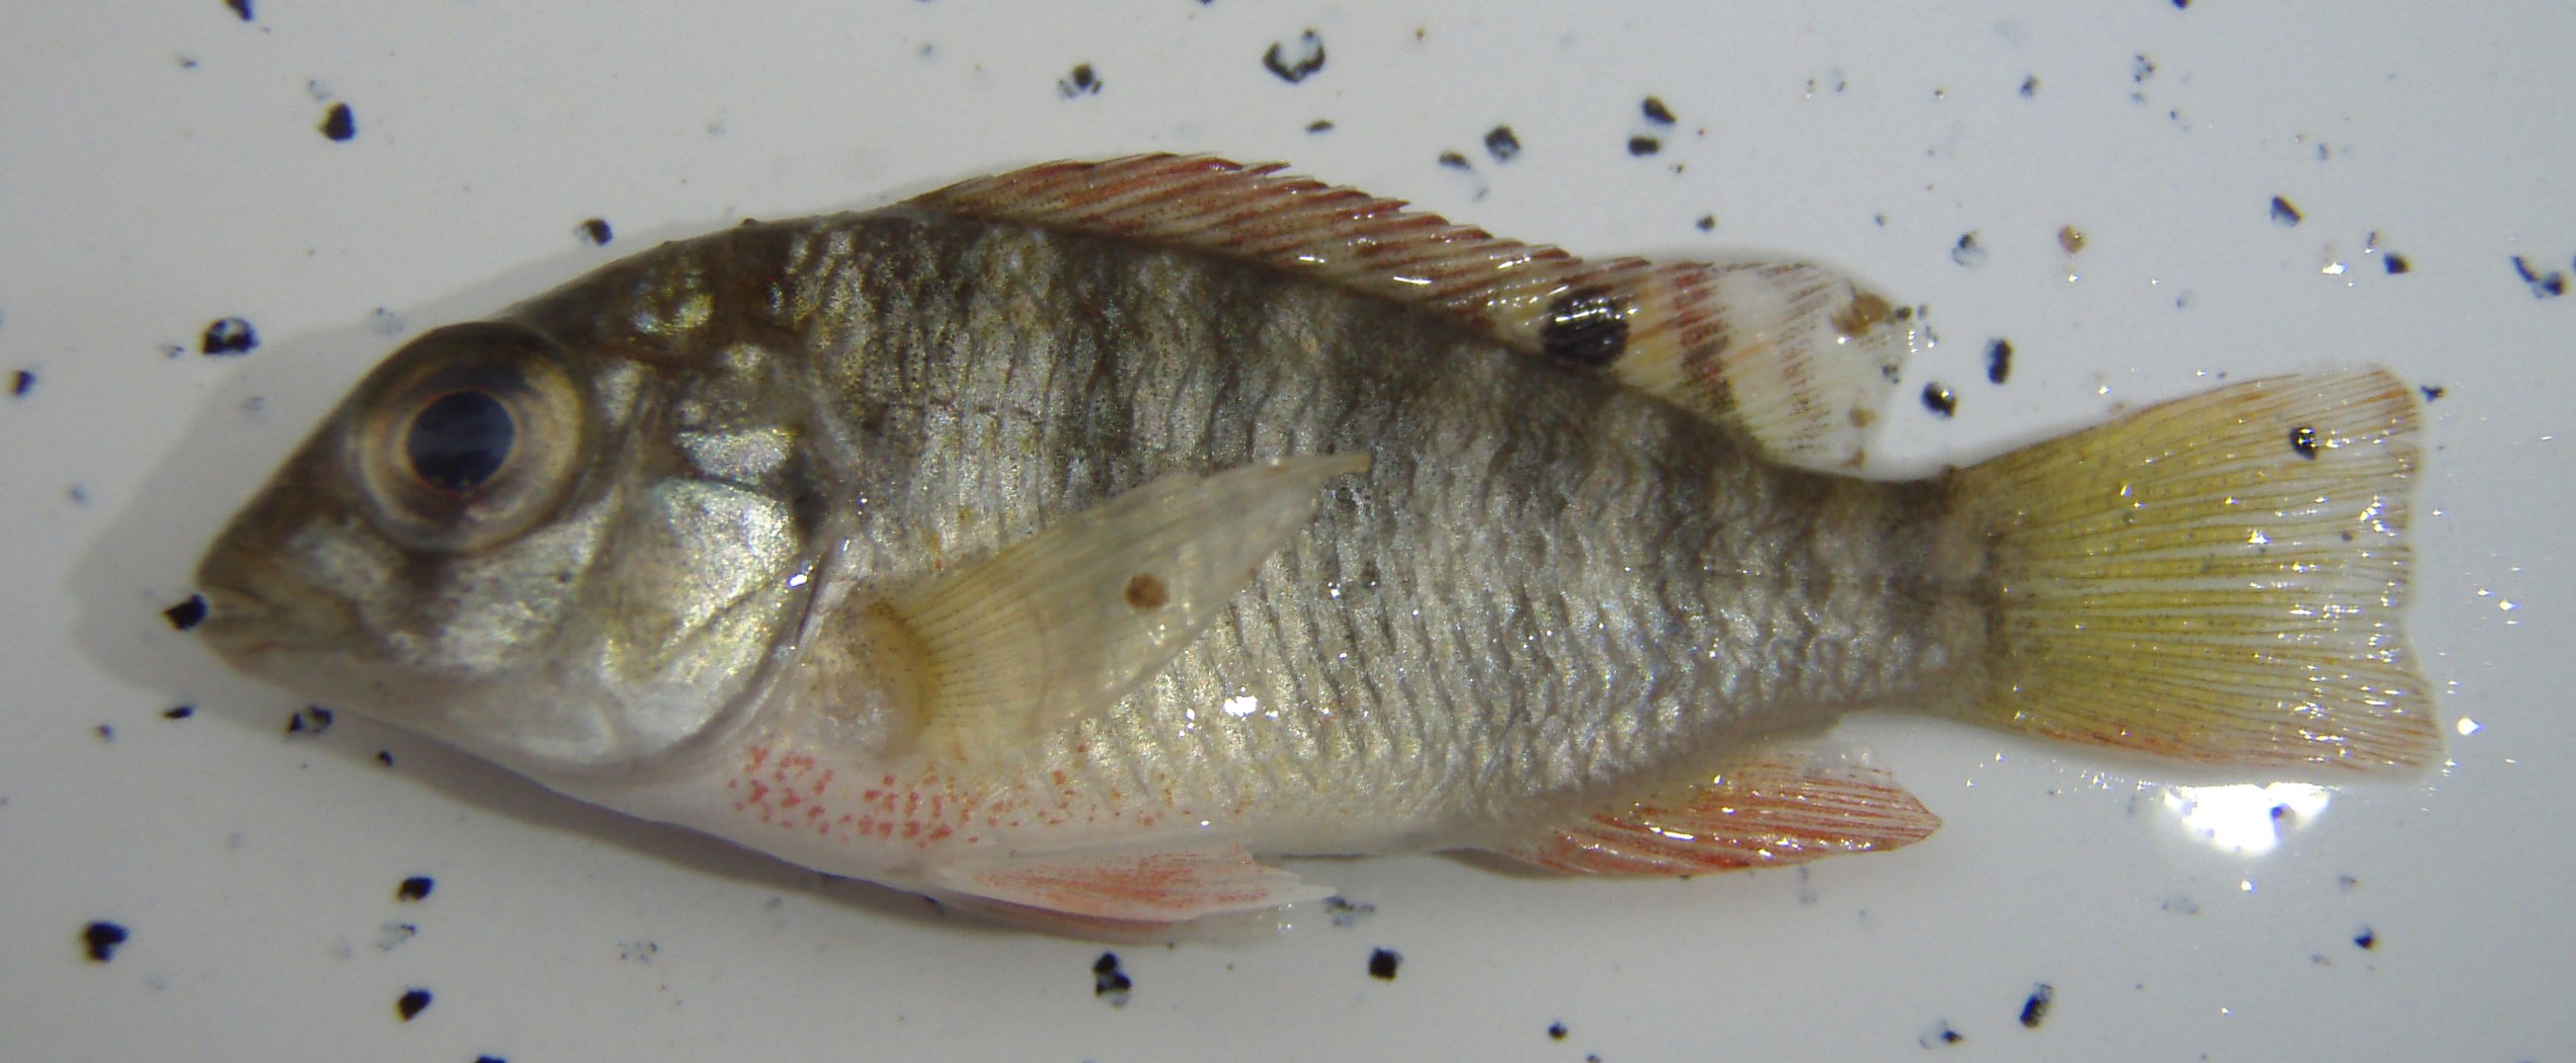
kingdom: Animalia
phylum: Chordata
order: Perciformes
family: Cichlidae
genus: Coptodon
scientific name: Coptodon rendalli
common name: Redbreast tilapia
